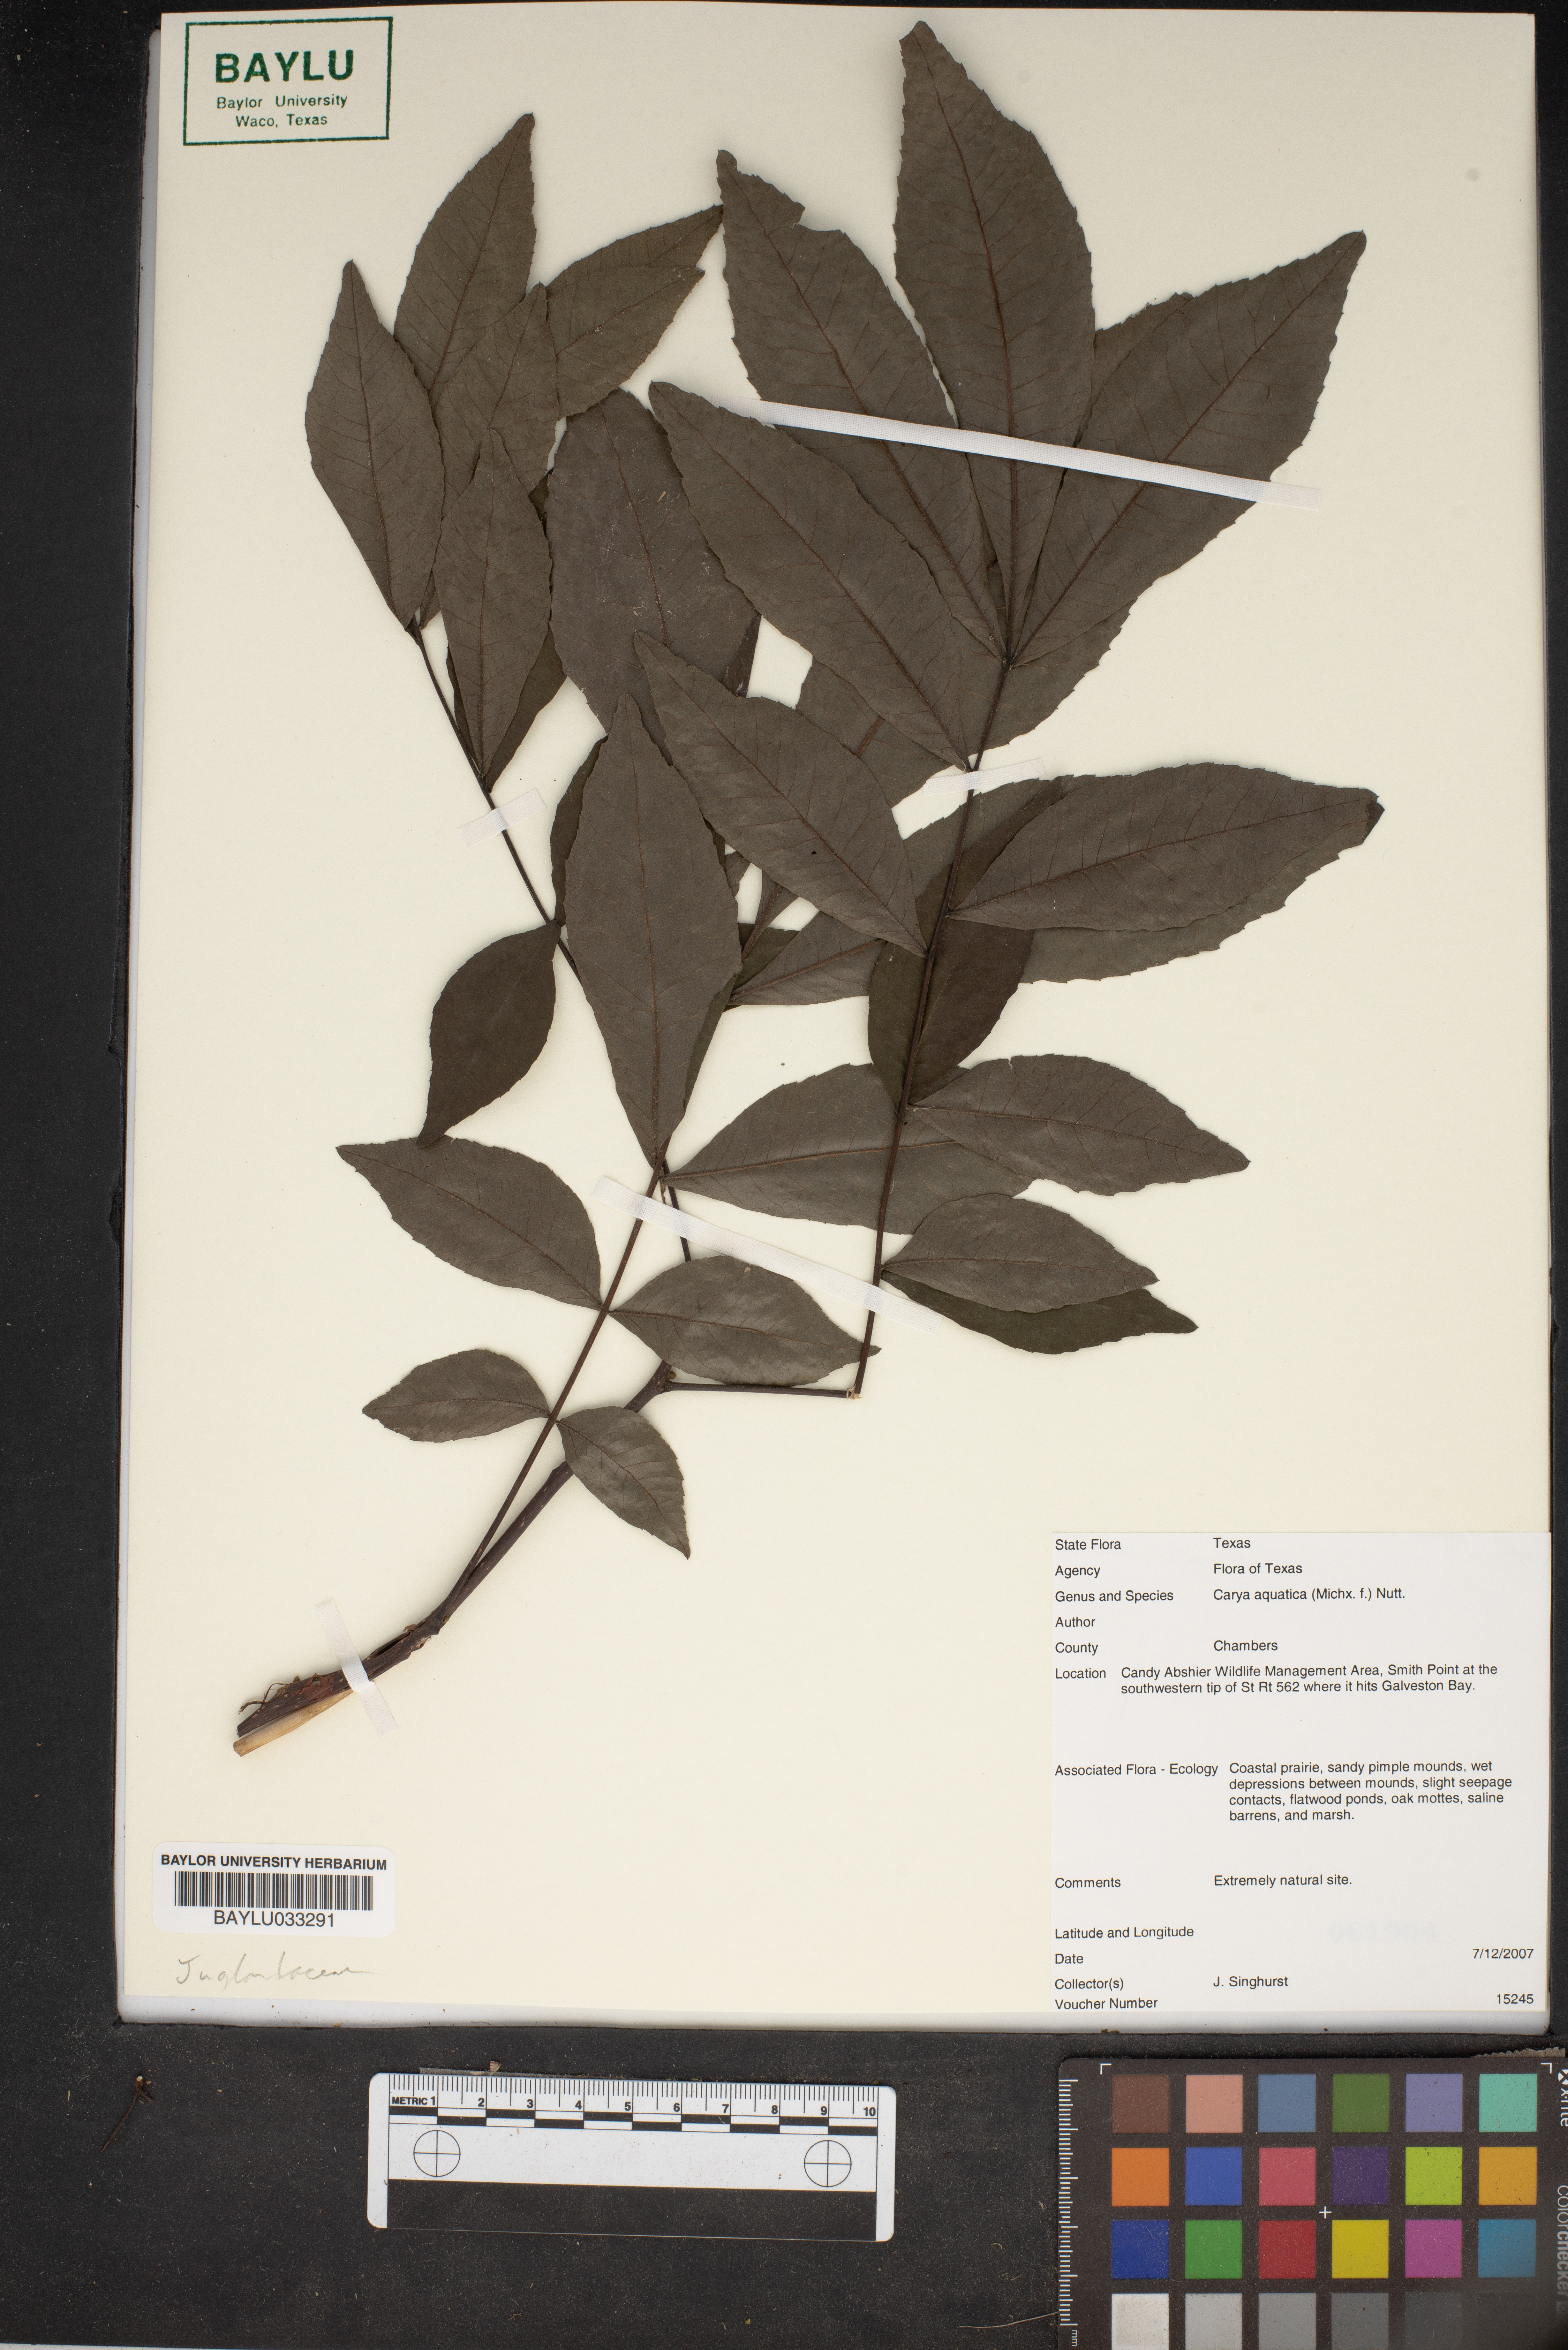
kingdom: Plantae
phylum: Tracheophyta
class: Magnoliopsida
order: Fagales
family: Juglandaceae
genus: Carya
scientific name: Carya aquatica
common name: Water hickory
